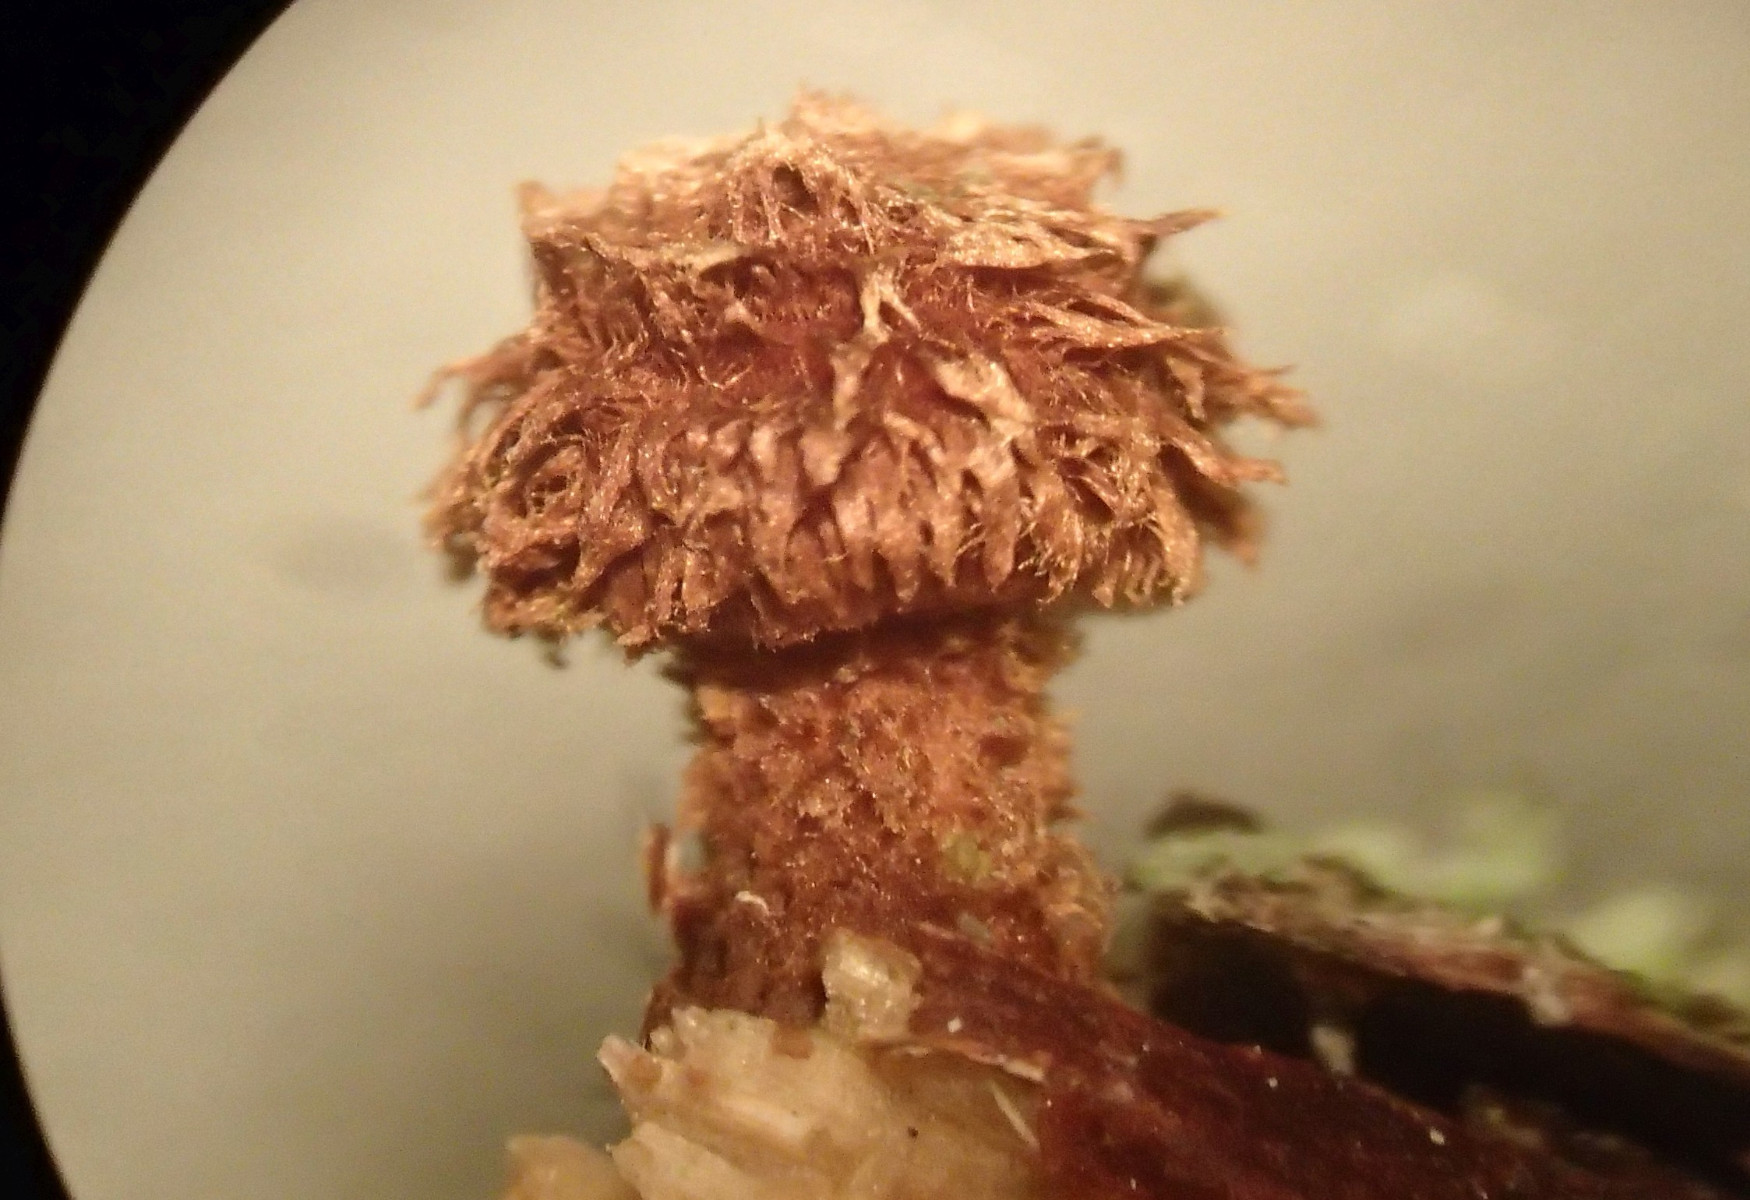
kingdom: Fungi
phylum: Basidiomycota
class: Agaricomycetes
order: Agaricales
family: Tubariaceae
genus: Phaeomarasmius
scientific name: Phaeomarasmius erinaceus
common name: spidsskælhat
